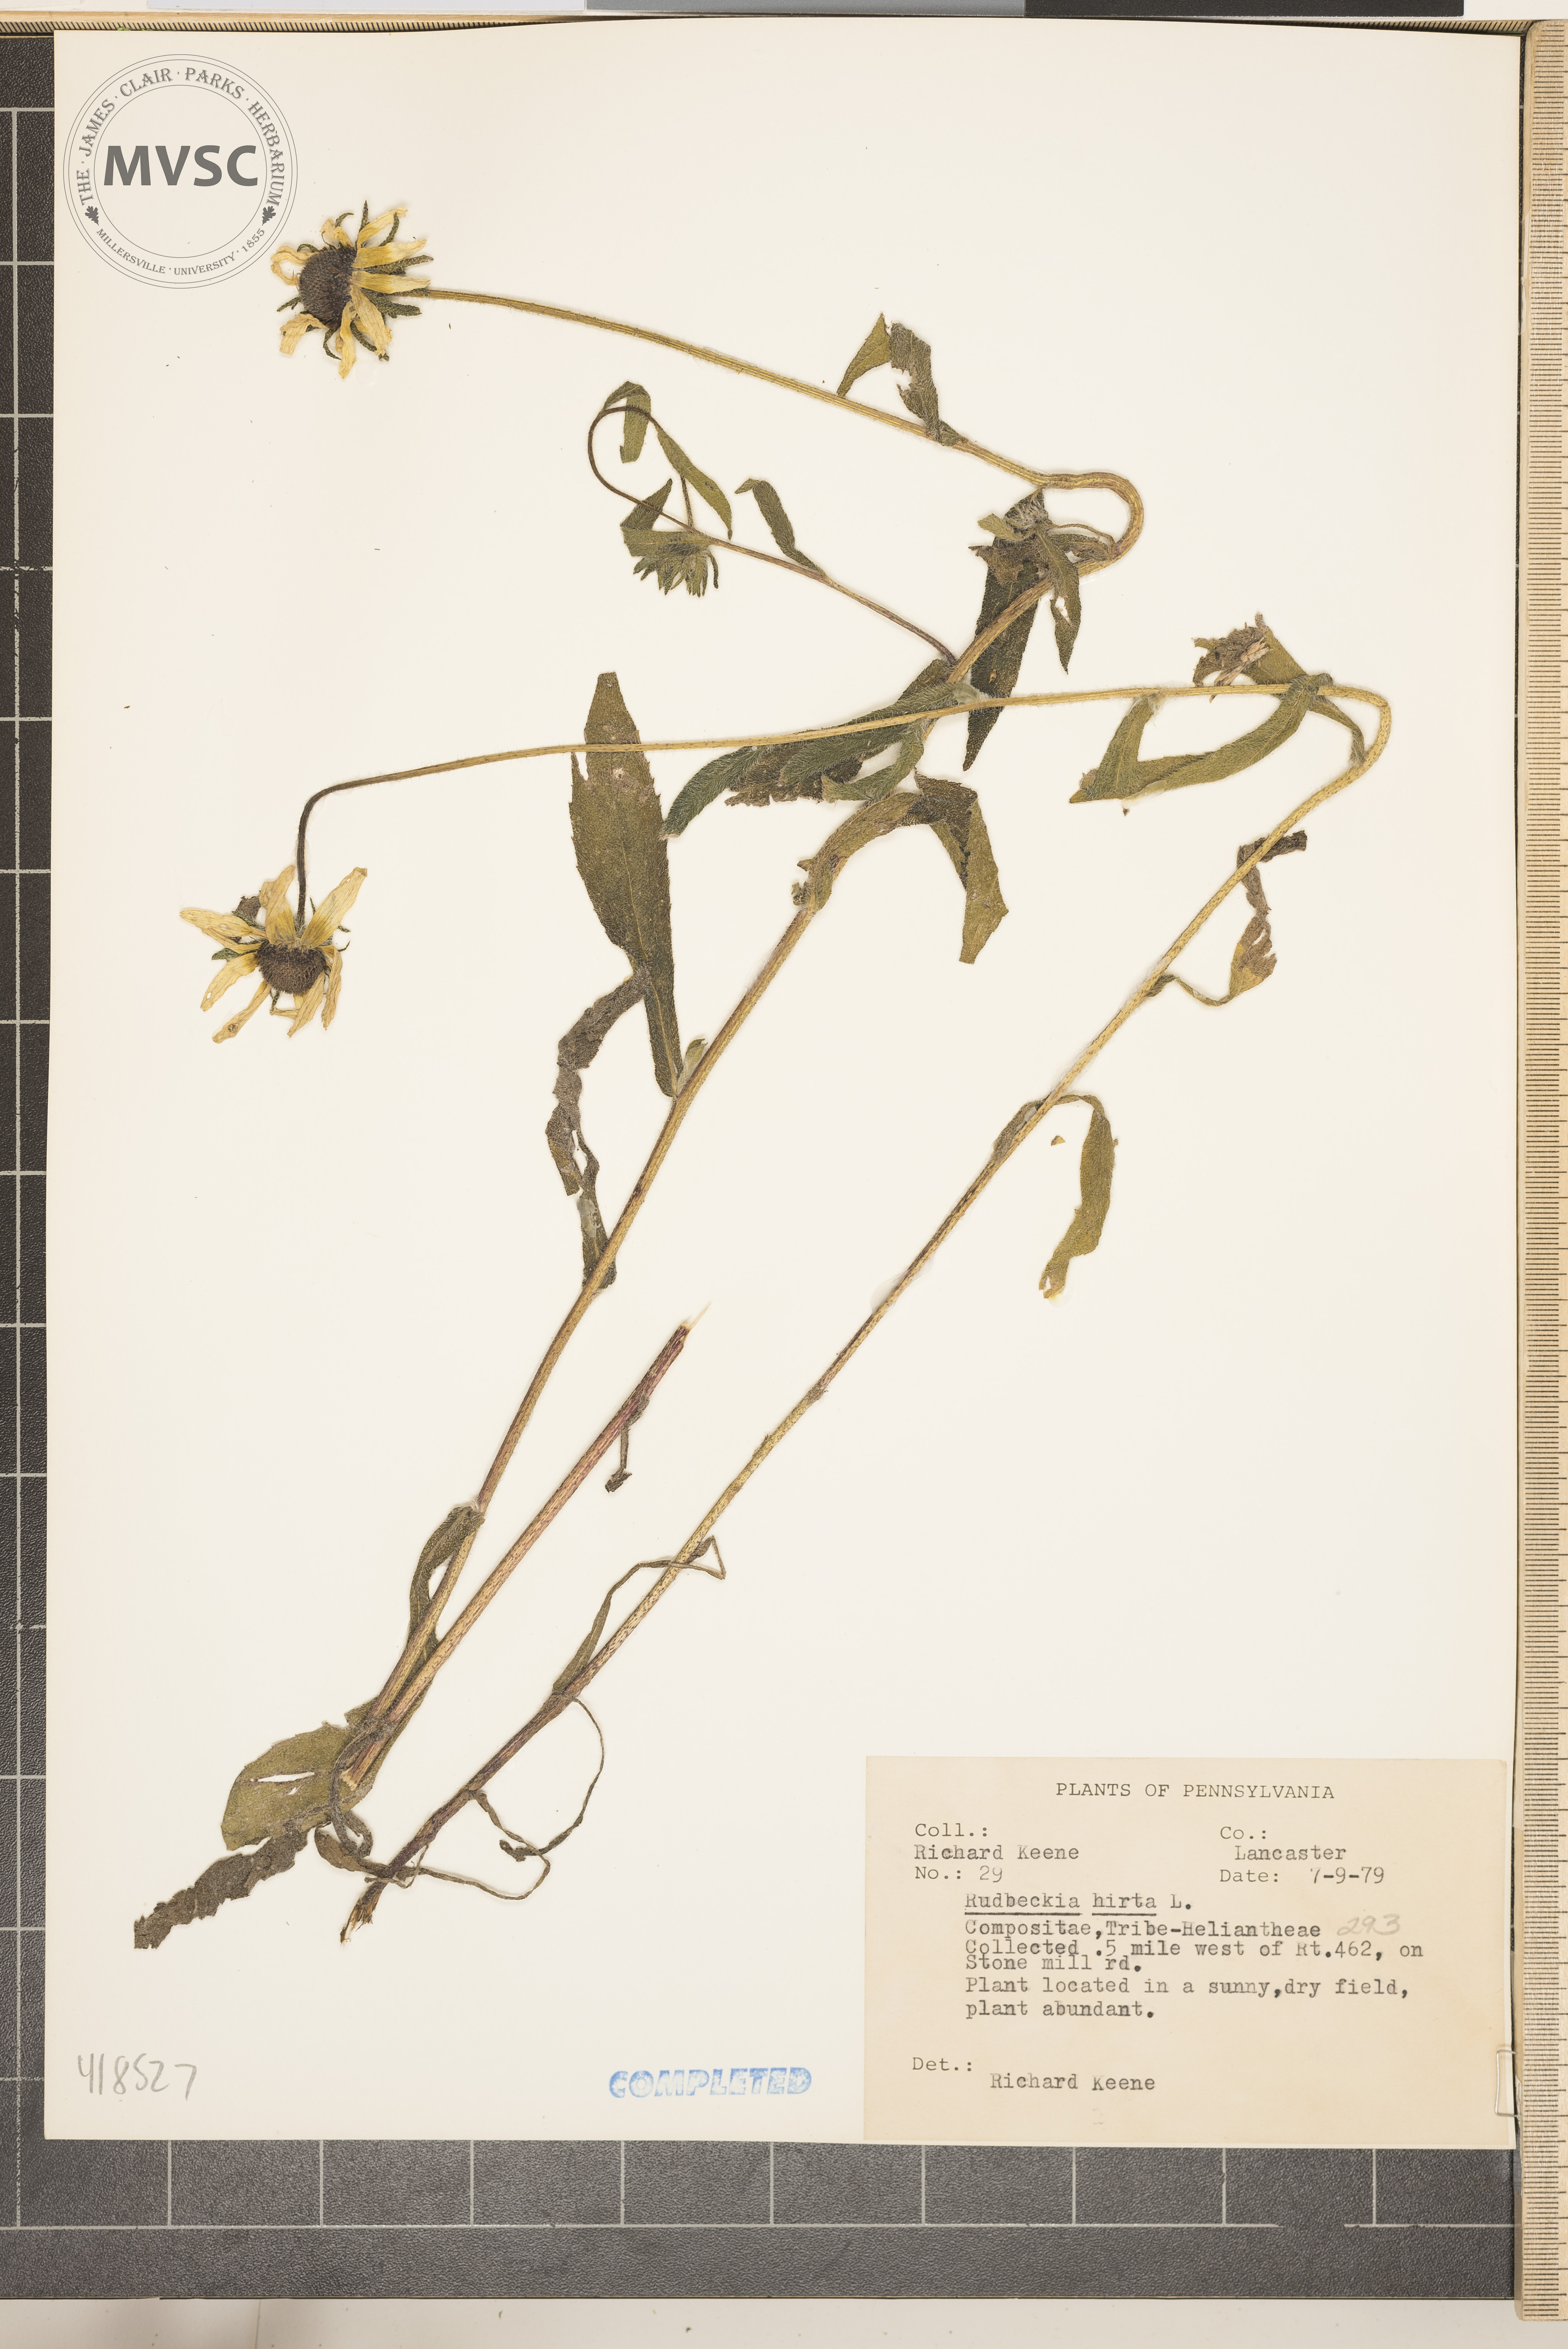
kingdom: Plantae
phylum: Tracheophyta
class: Magnoliopsida
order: Asterales
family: Asteraceae
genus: Rudbeckia
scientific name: Rudbeckia hirta
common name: Black-eyed Susan
